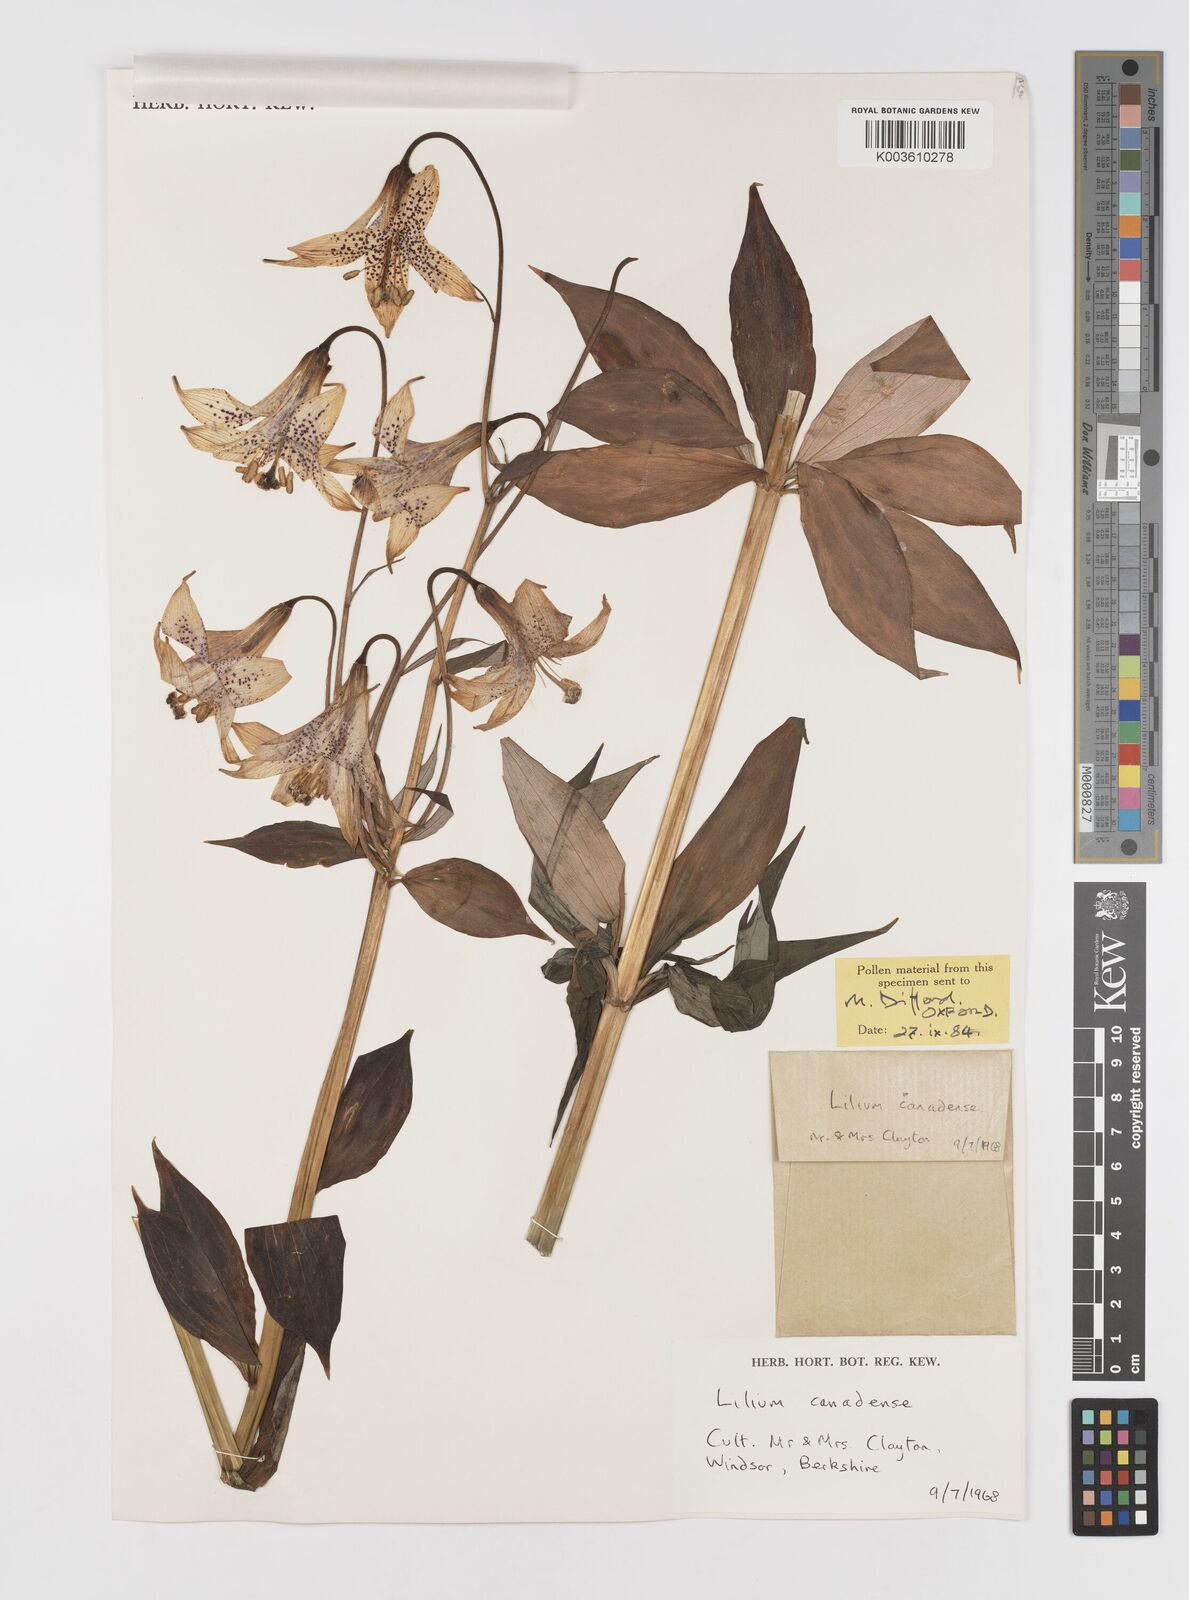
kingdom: Plantae
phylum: Tracheophyta
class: Liliopsida
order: Liliales
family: Liliaceae
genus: Lilium
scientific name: Lilium canadense
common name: Canada lily
